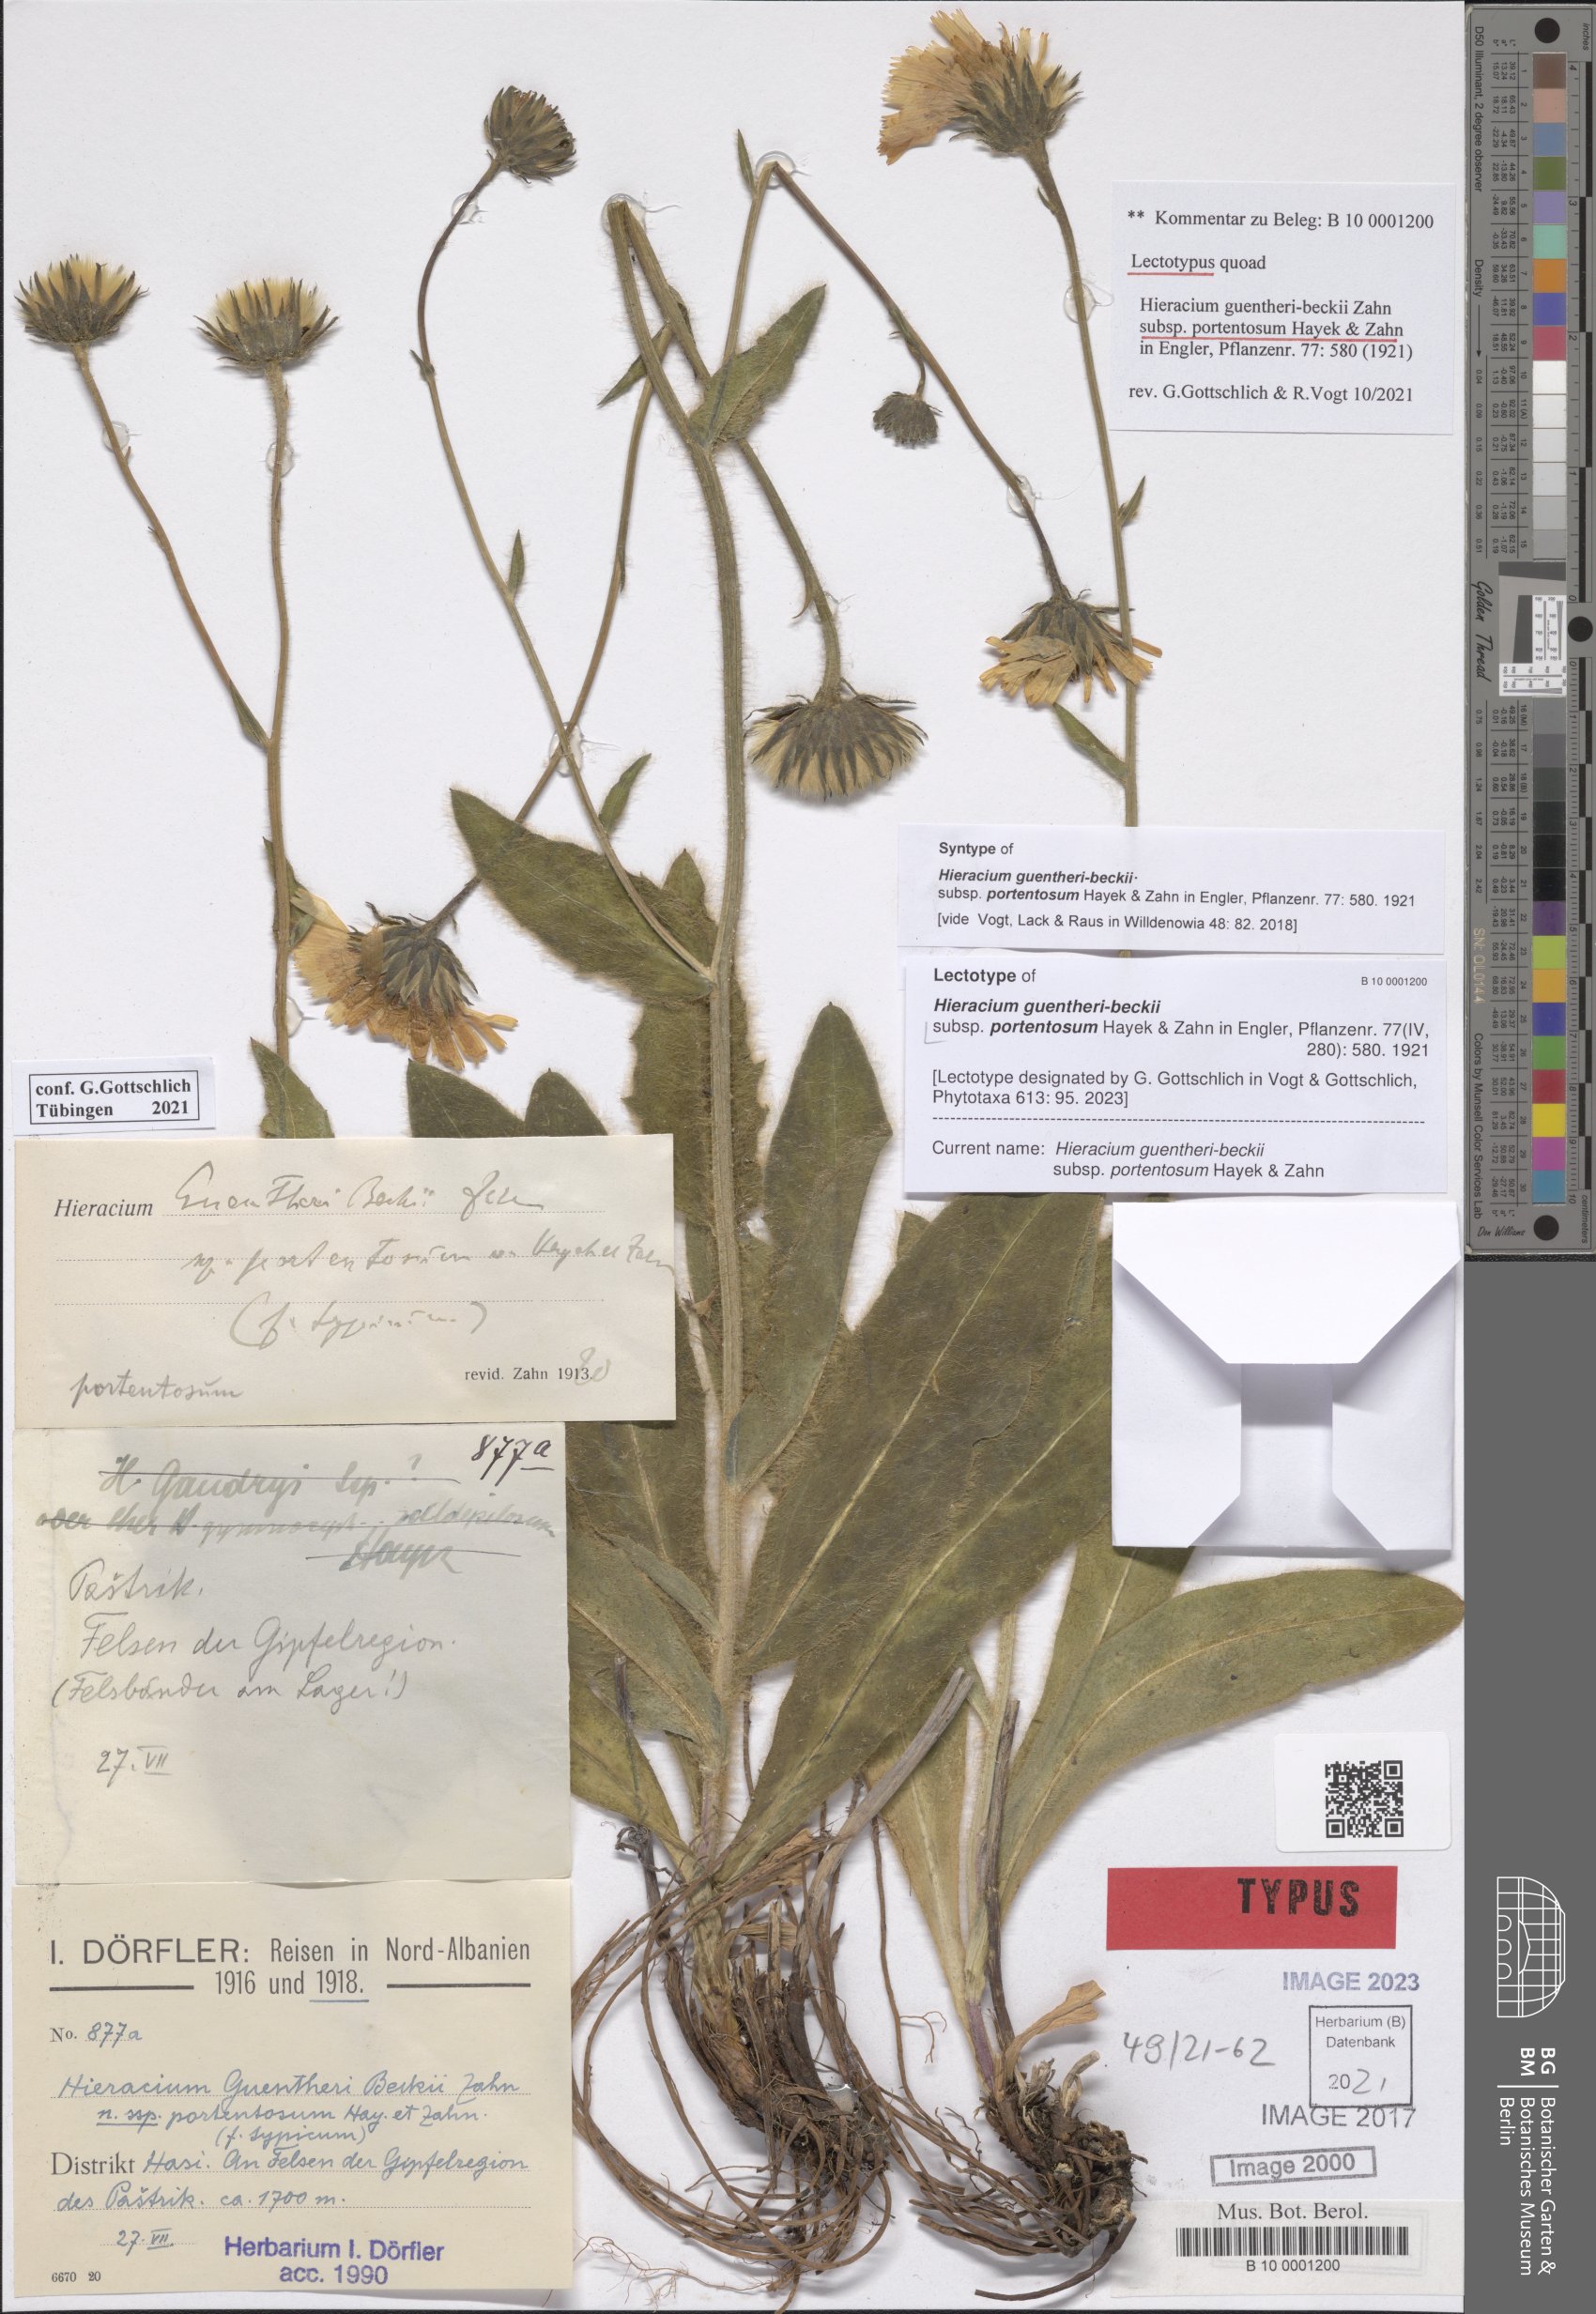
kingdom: Plantae
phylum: Tracheophyta
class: Magnoliopsida
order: Asterales
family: Asteraceae
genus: Hieracium
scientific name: Hieracium stirovacense
